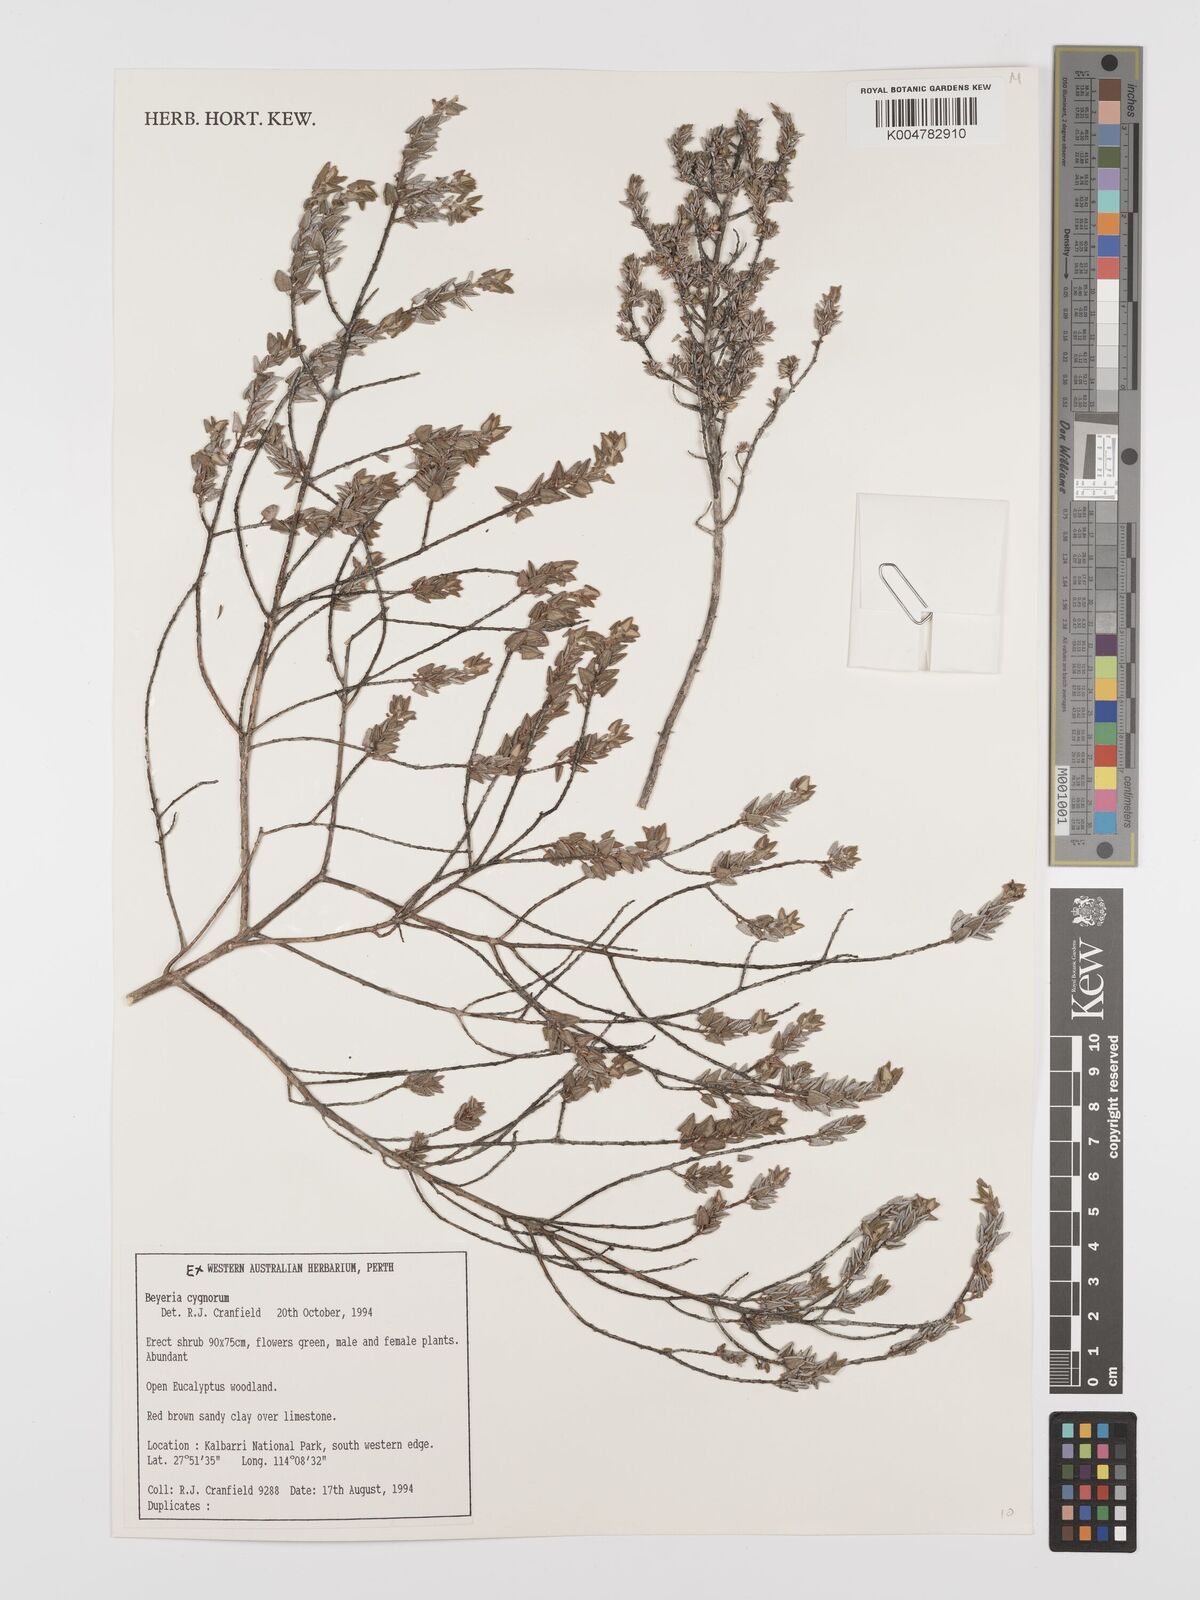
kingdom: Plantae
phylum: Tracheophyta
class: Magnoliopsida
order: Malpighiales
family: Euphorbiaceae
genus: Beyeria
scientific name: Beyeria cinerea
